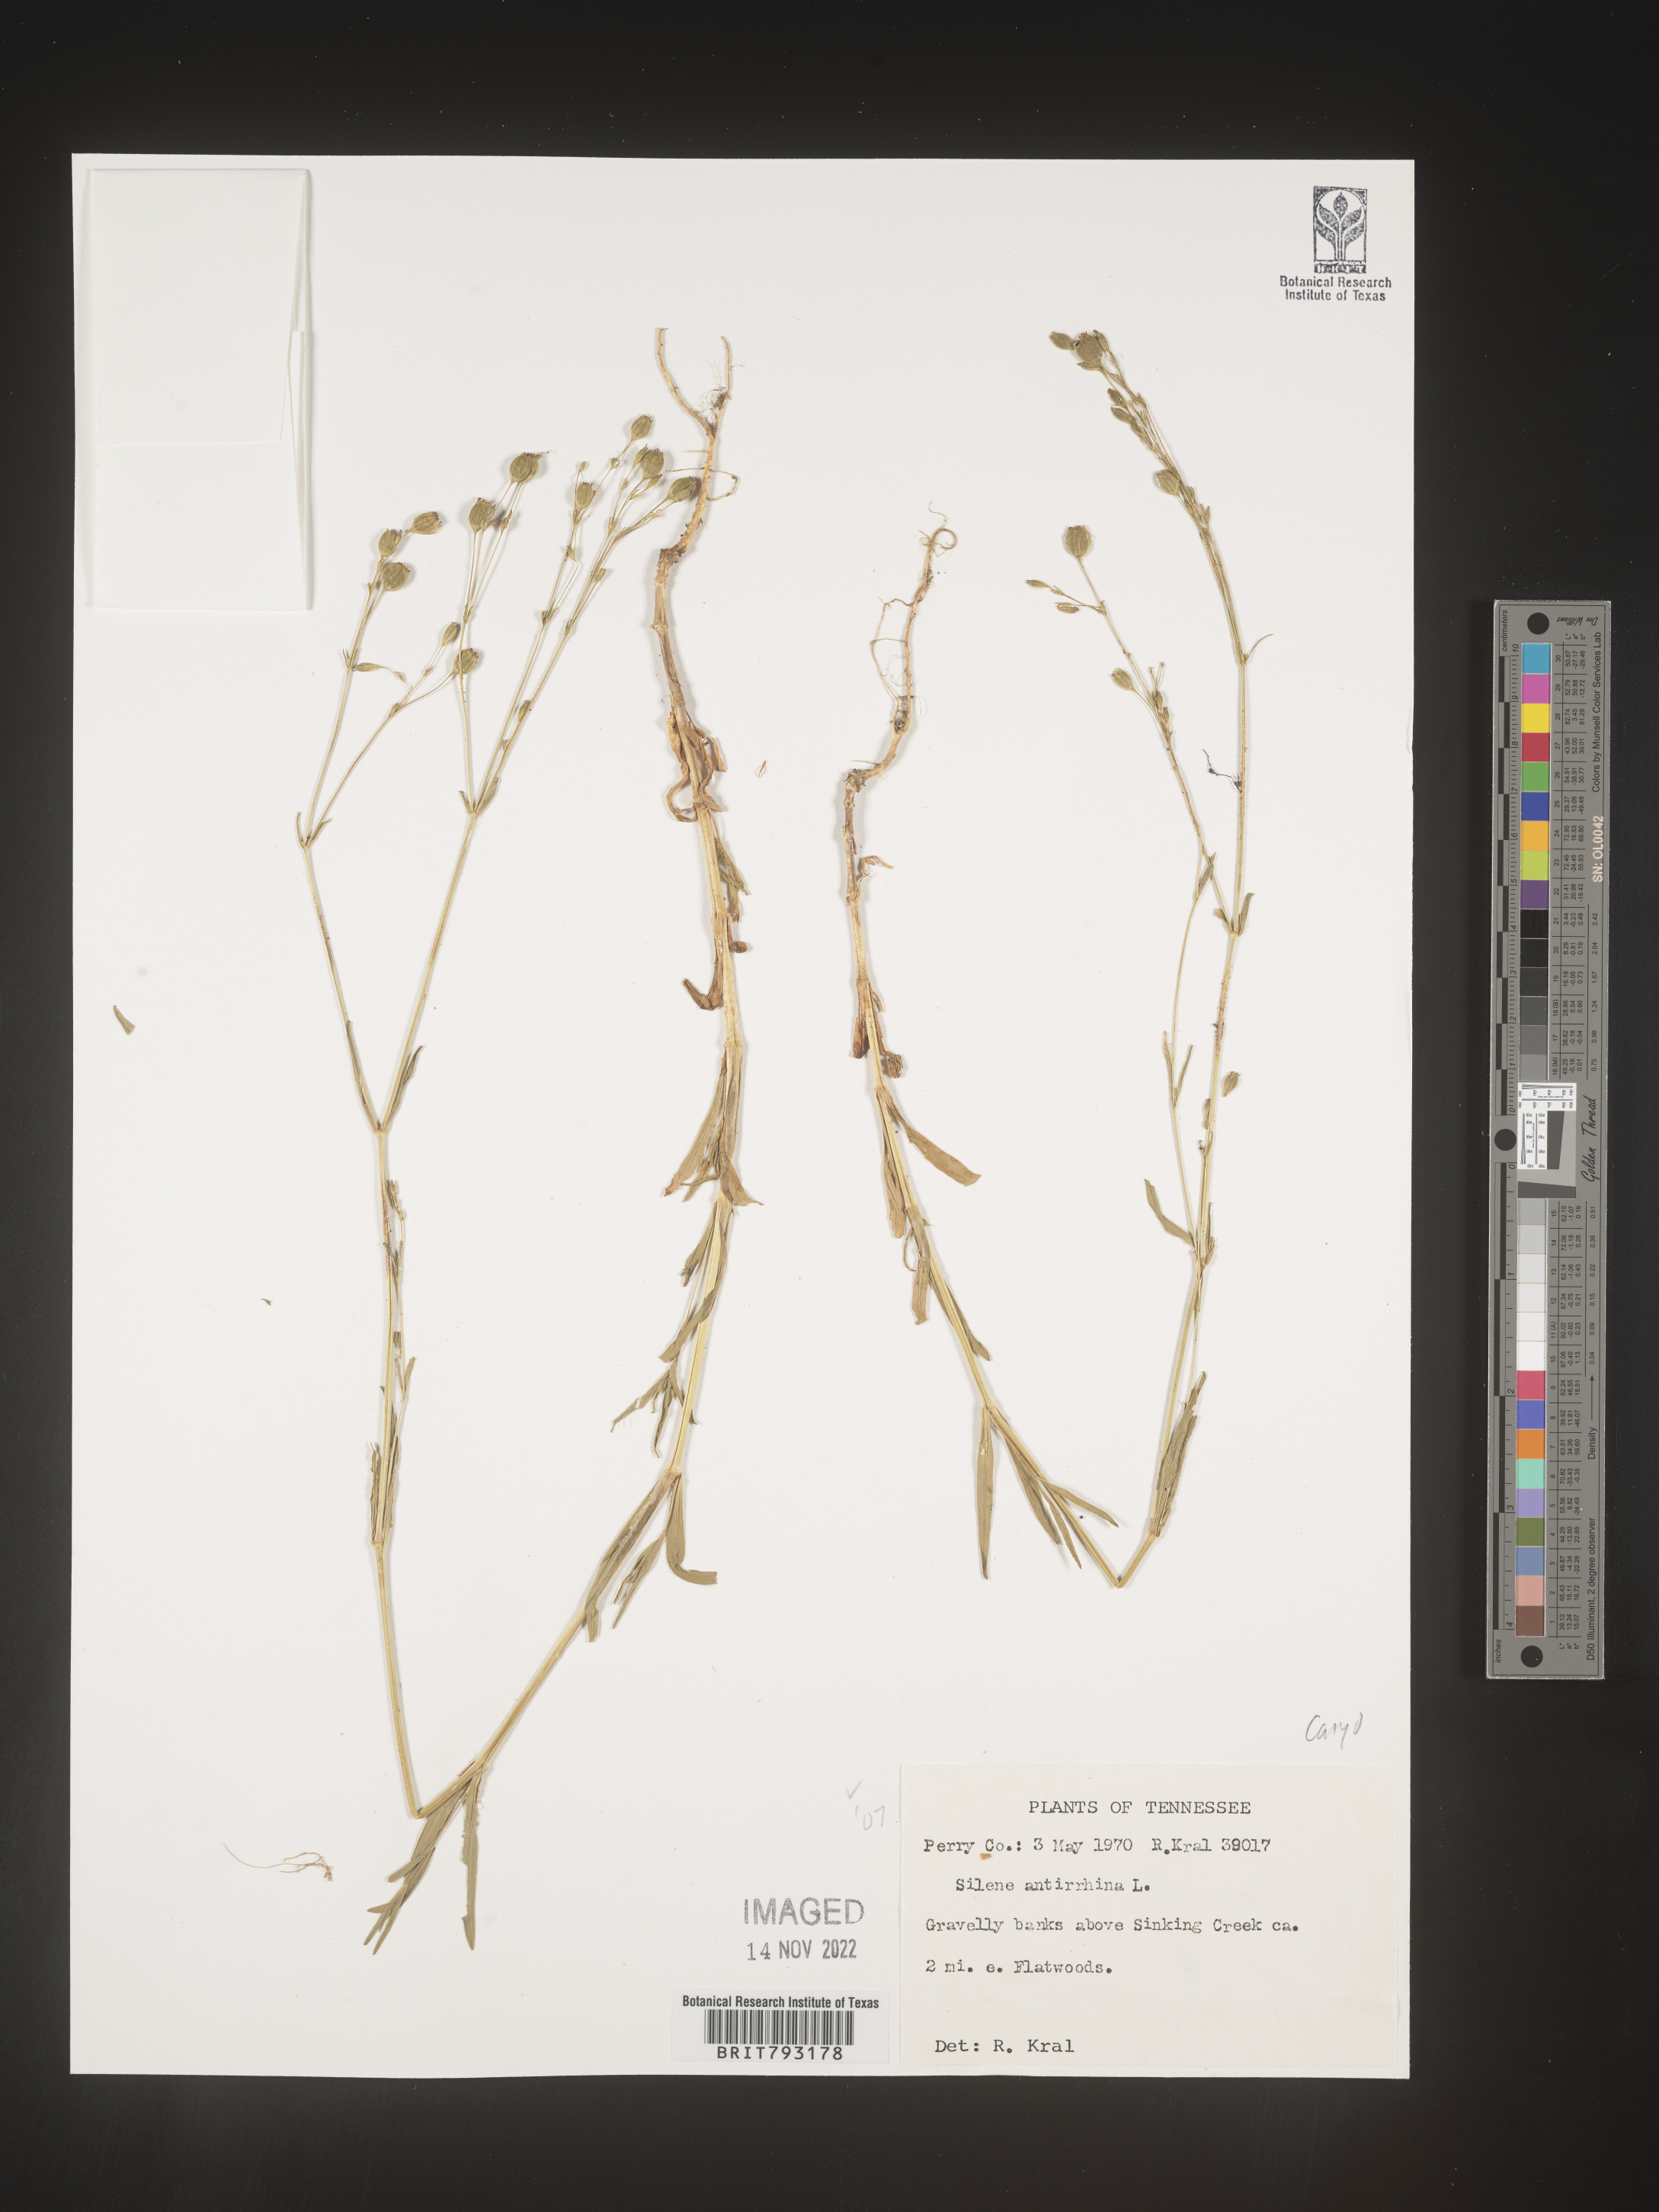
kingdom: Plantae
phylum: Tracheophyta
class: Magnoliopsida
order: Caryophyllales
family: Caryophyllaceae
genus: Silene
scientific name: Silene antirrhina
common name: Sleepy catchfly
